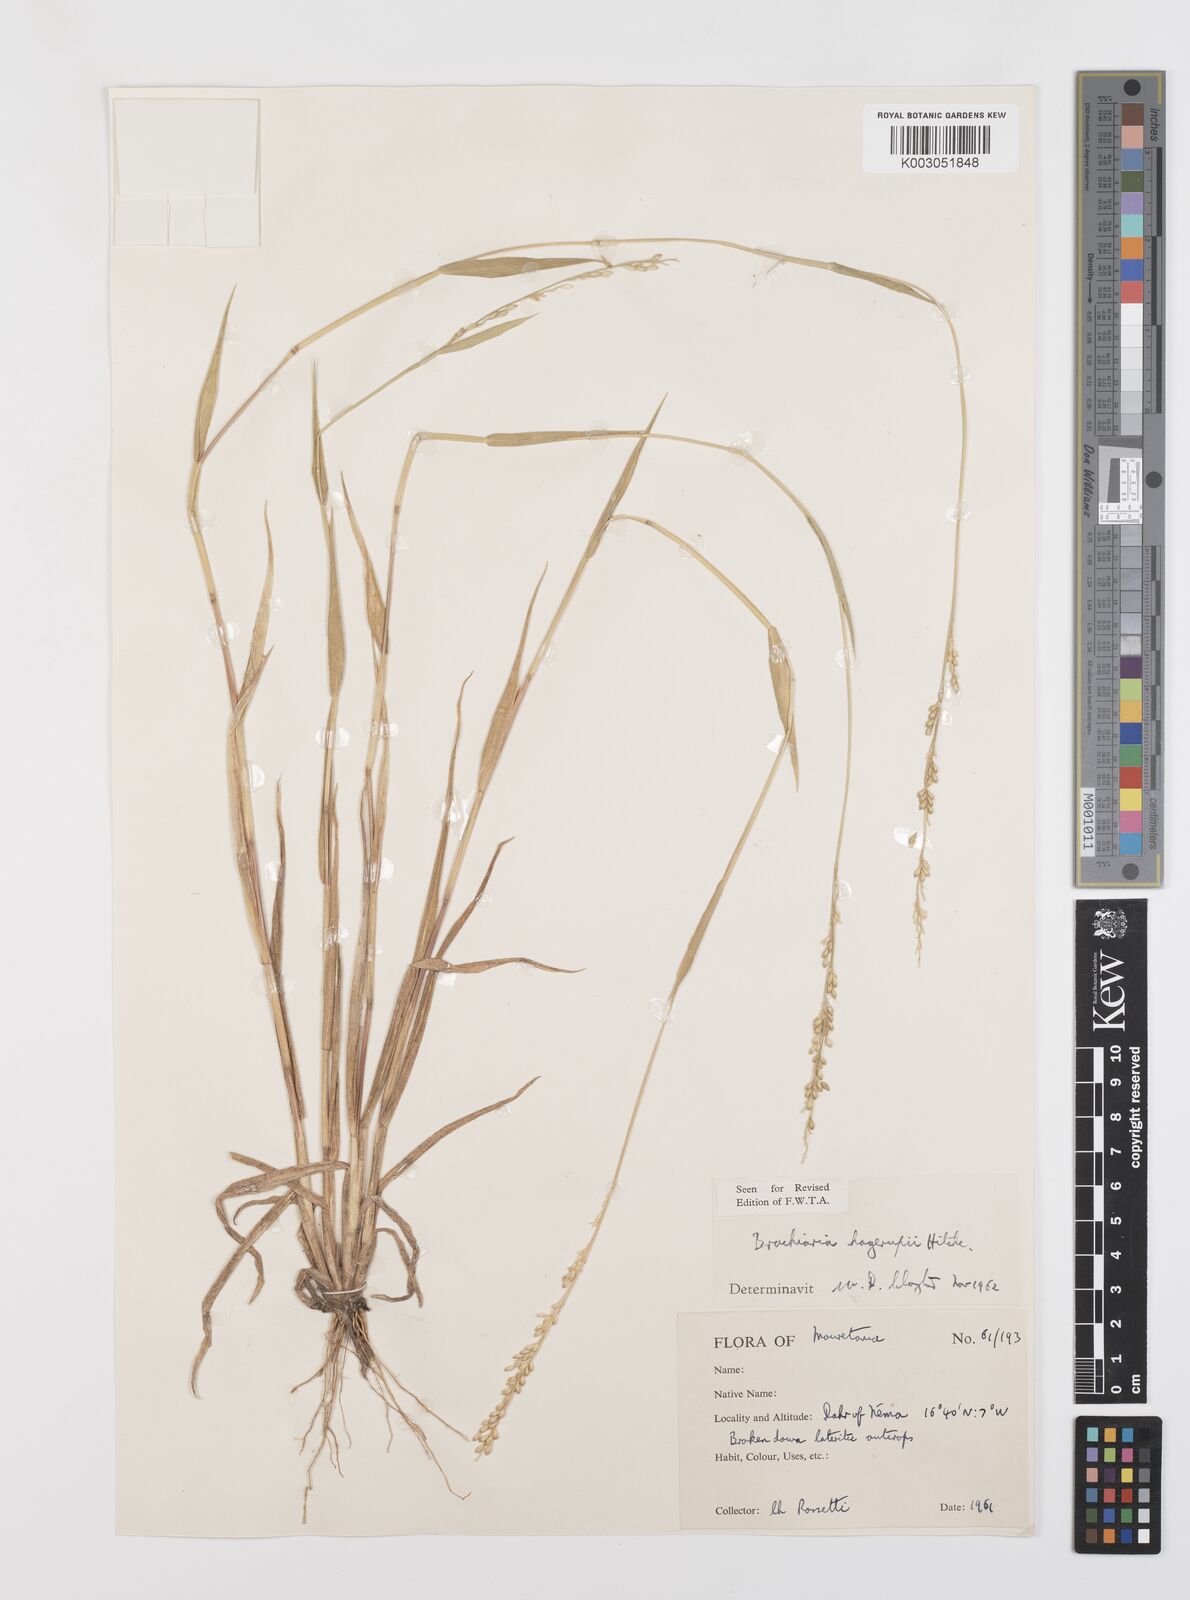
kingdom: Plantae
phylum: Tracheophyta
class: Liliopsida
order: Poales
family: Poaceae
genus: Urochloa
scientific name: Urochloa orthostachys
